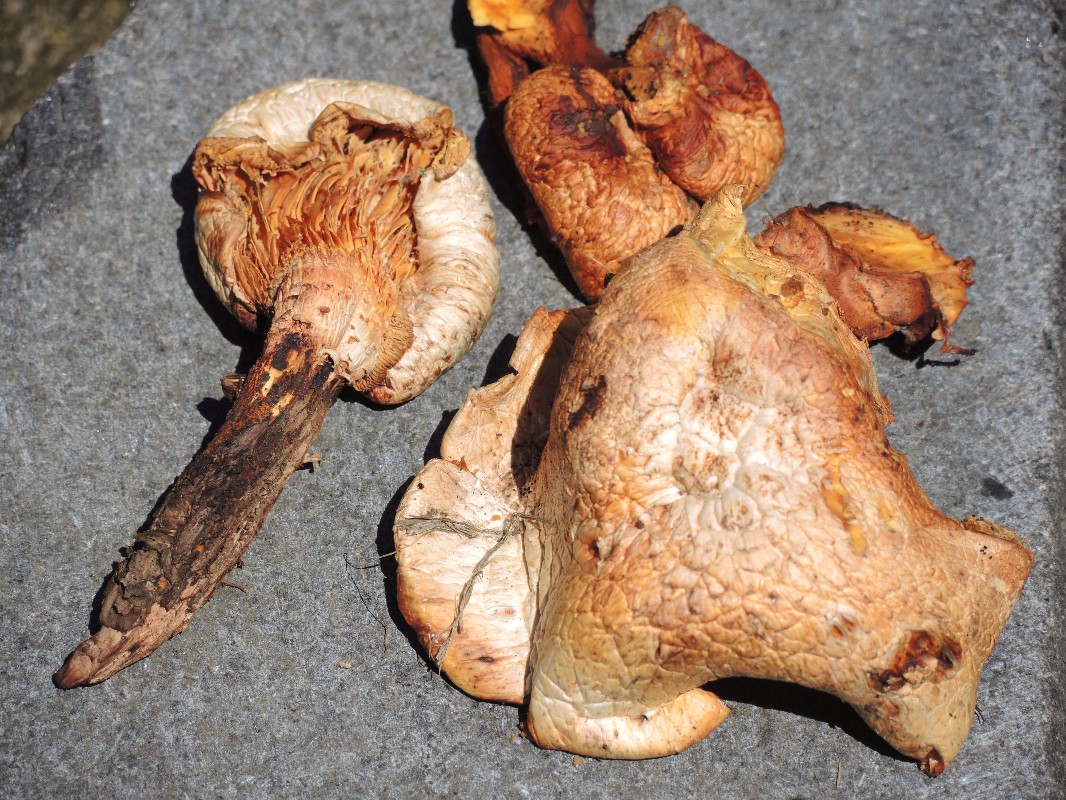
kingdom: Fungi
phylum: Basidiomycota
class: Agaricomycetes
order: Gloeophyllales
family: Gloeophyllaceae
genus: Neolentinus
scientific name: Neolentinus lepideus
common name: skællet sejhat
